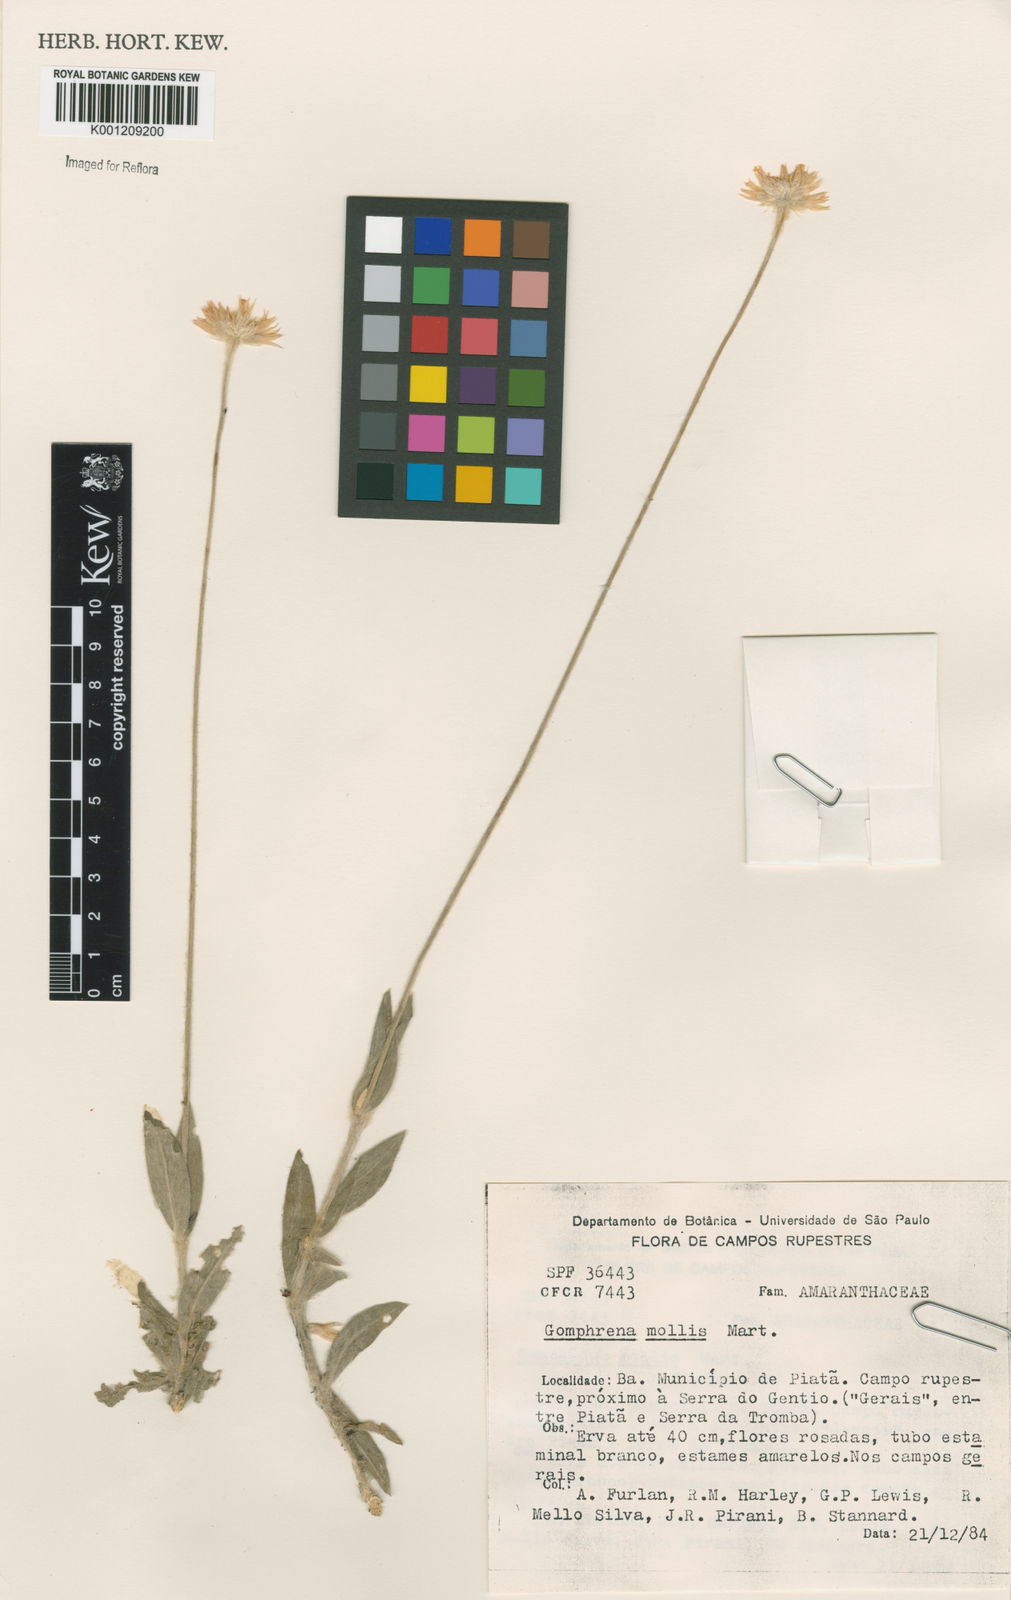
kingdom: Plantae
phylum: Tracheophyta
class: Magnoliopsida
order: Caryophyllales
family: Amaranthaceae
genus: Gomphrena
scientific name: Gomphrena mollis
